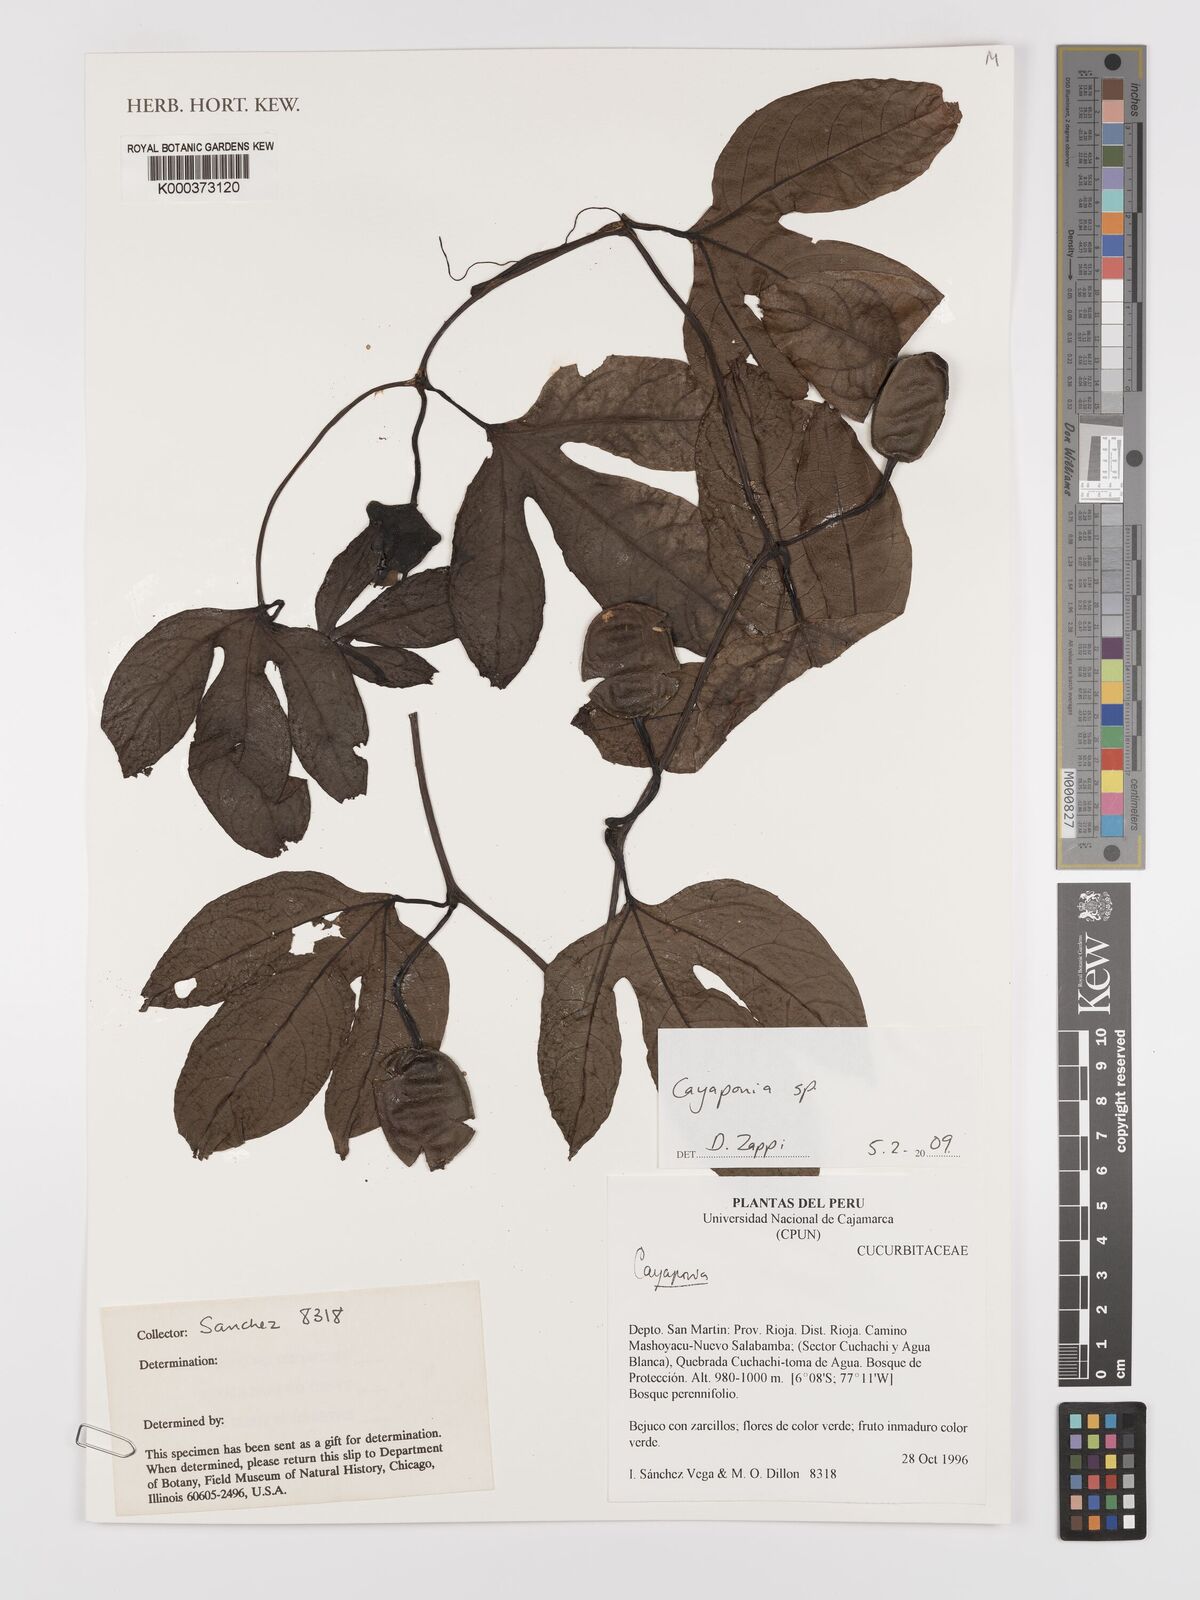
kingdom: Plantae
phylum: Tracheophyta
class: Magnoliopsida
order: Cucurbitales
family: Cucurbitaceae
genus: Cayaponia
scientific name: Cayaponia
